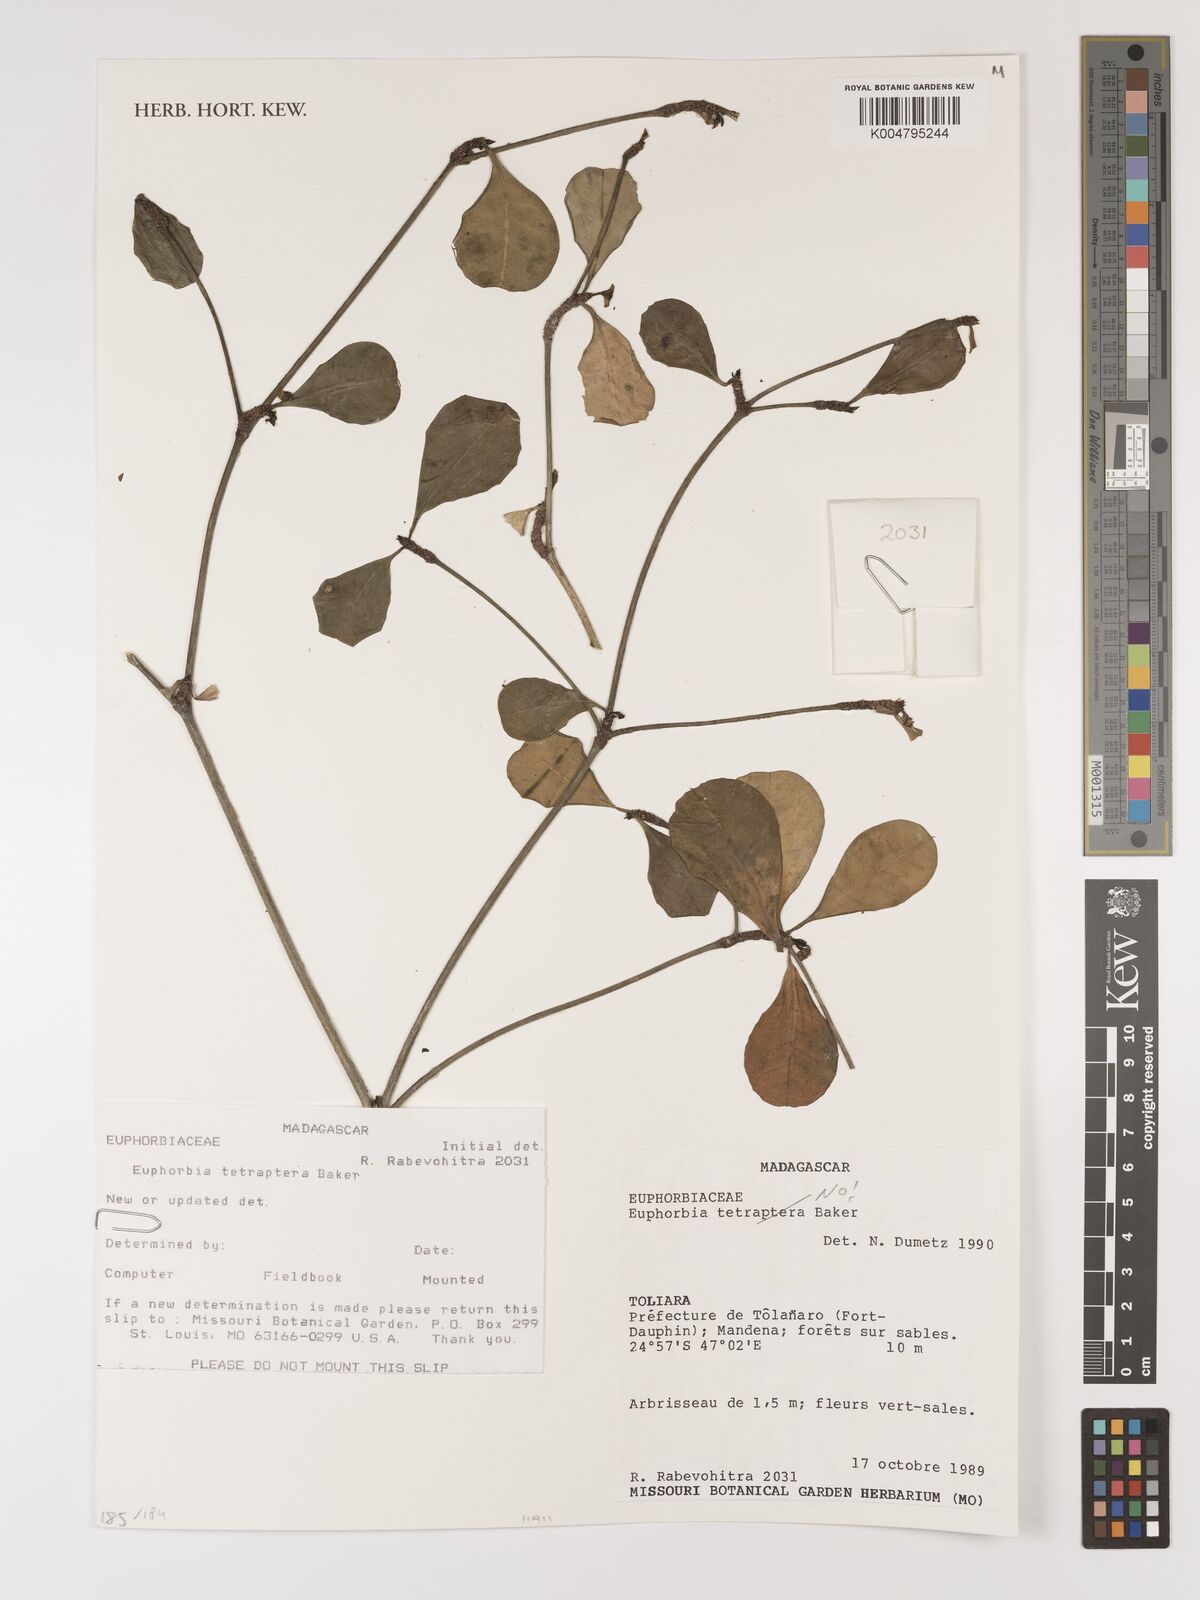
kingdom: Plantae
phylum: Tracheophyta
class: Magnoliopsida
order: Malpighiales
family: Euphorbiaceae
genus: Euphorbia
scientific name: Euphorbia
